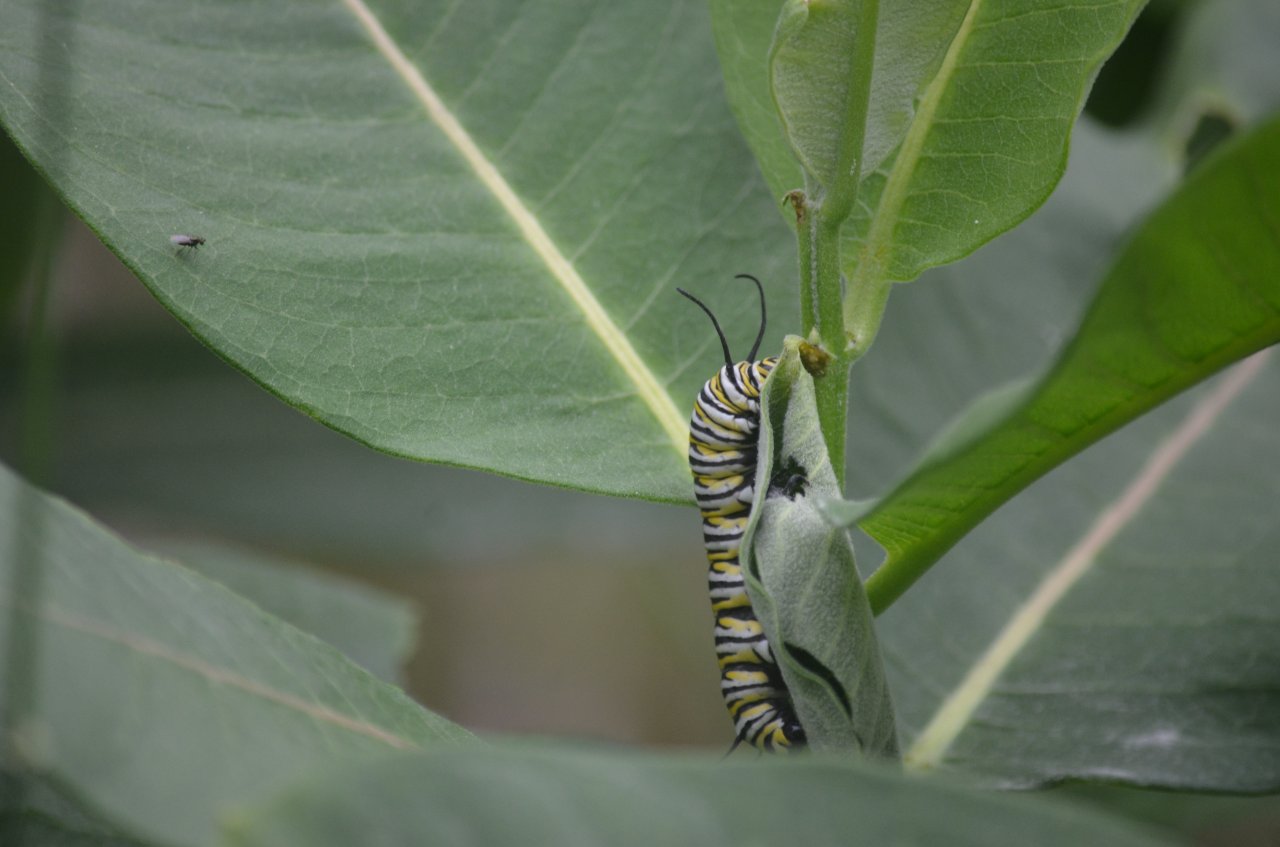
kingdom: Animalia
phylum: Arthropoda
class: Insecta
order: Lepidoptera
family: Nymphalidae
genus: Danaus
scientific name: Danaus plexippus
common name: Monarch
